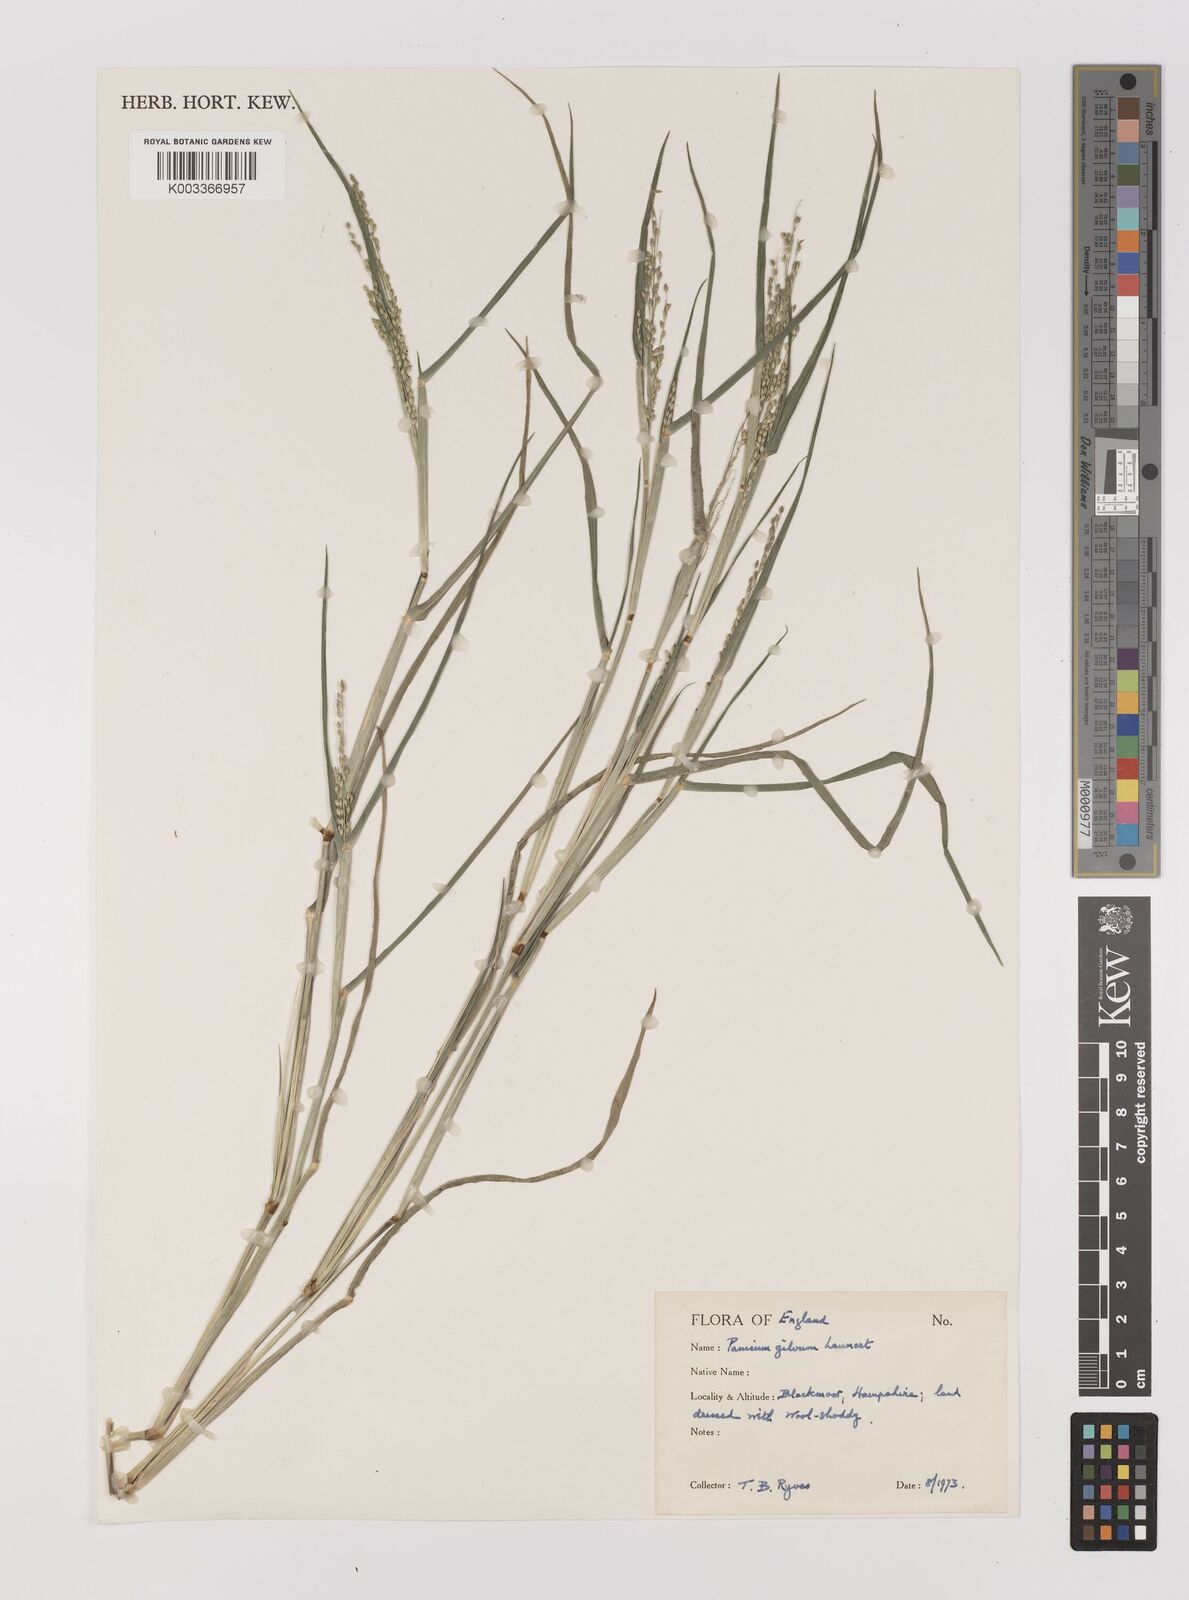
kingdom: Plantae
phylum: Tracheophyta
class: Liliopsida
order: Poales
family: Poaceae
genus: Panicum
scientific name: Panicum gilvum
